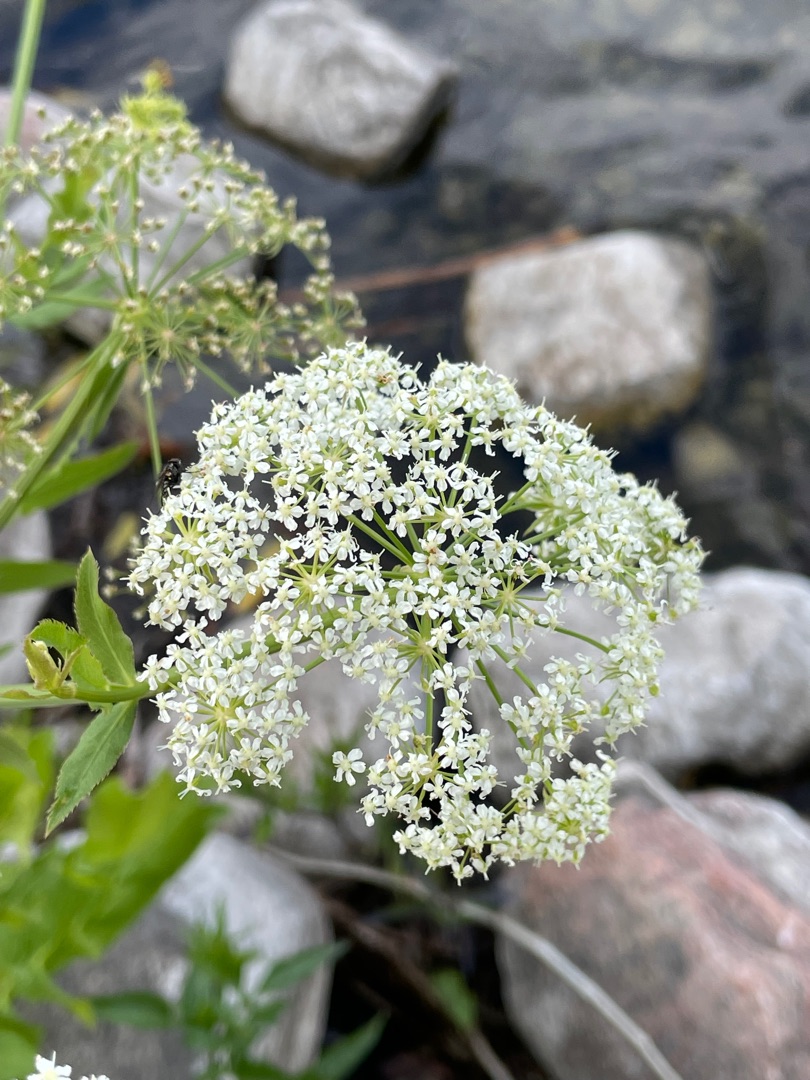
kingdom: Plantae
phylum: Tracheophyta
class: Magnoliopsida
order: Apiales
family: Apiaceae
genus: Sium
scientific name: Sium latifolium
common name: Bredbladet mærke
